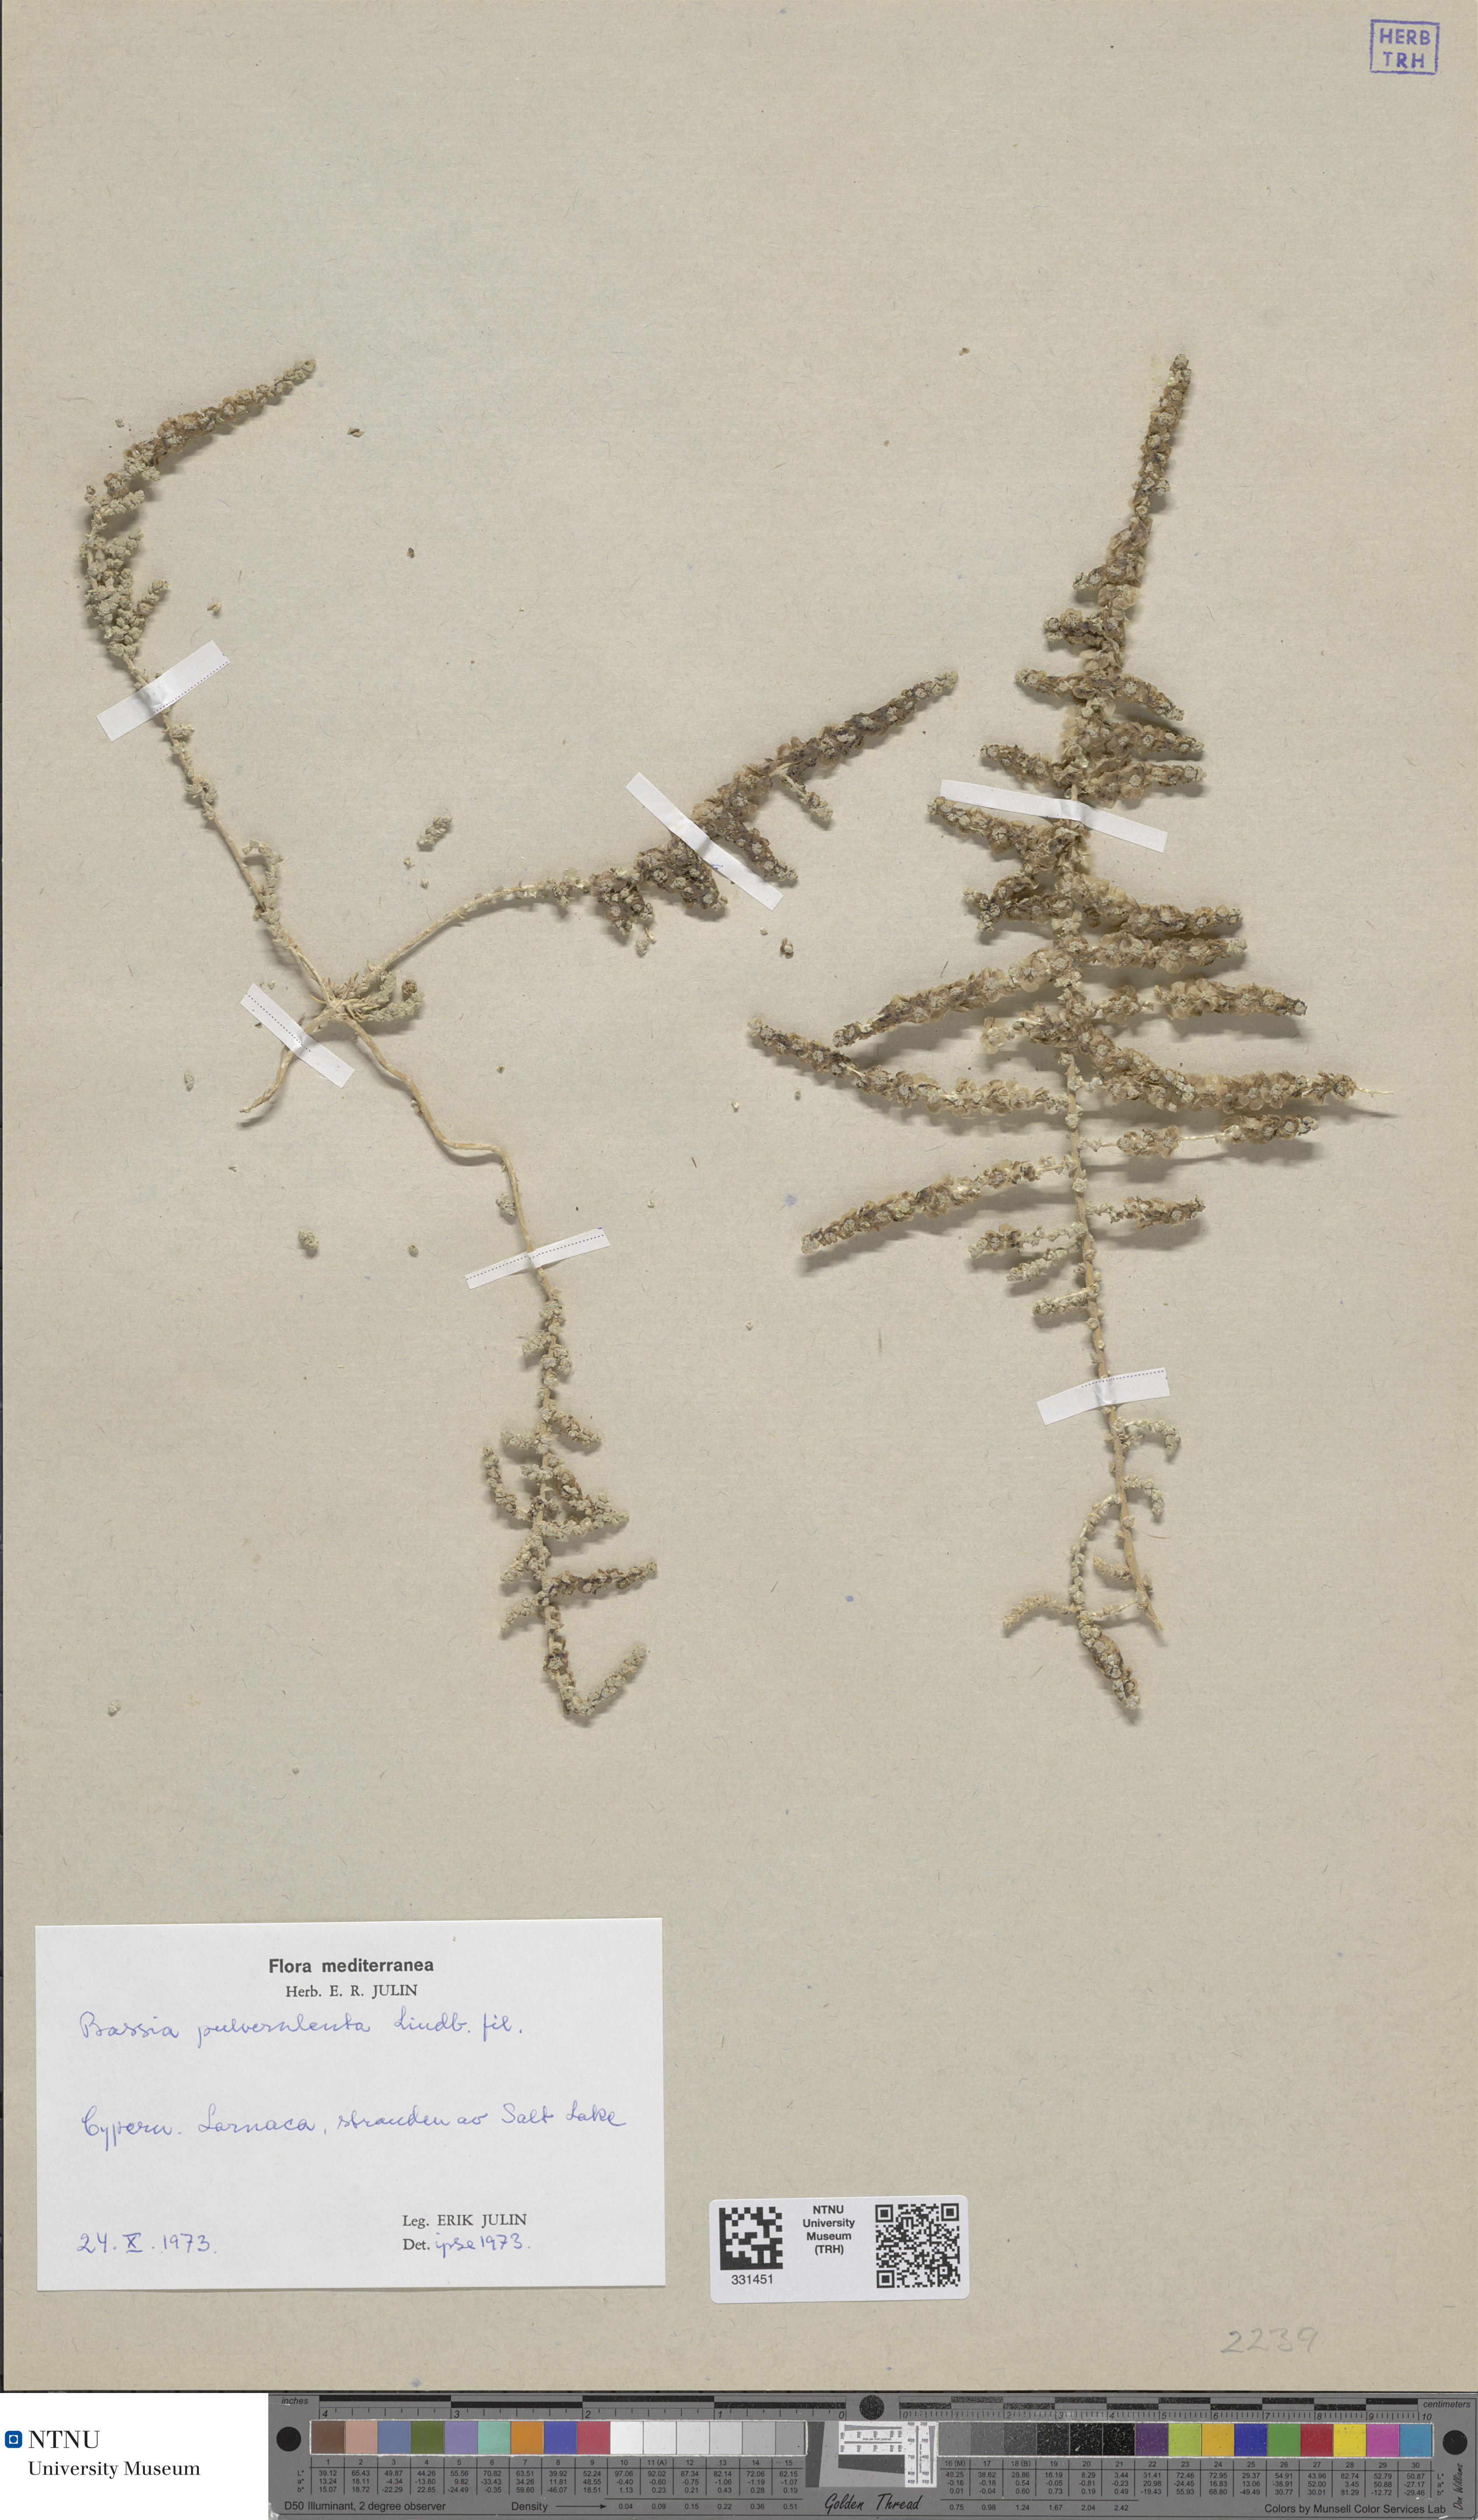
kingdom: Plantae
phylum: Tracheophyta
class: Magnoliopsida
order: Caryophyllales
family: Amaranthaceae
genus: Caroxylon
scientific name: Caroxylon inermis
